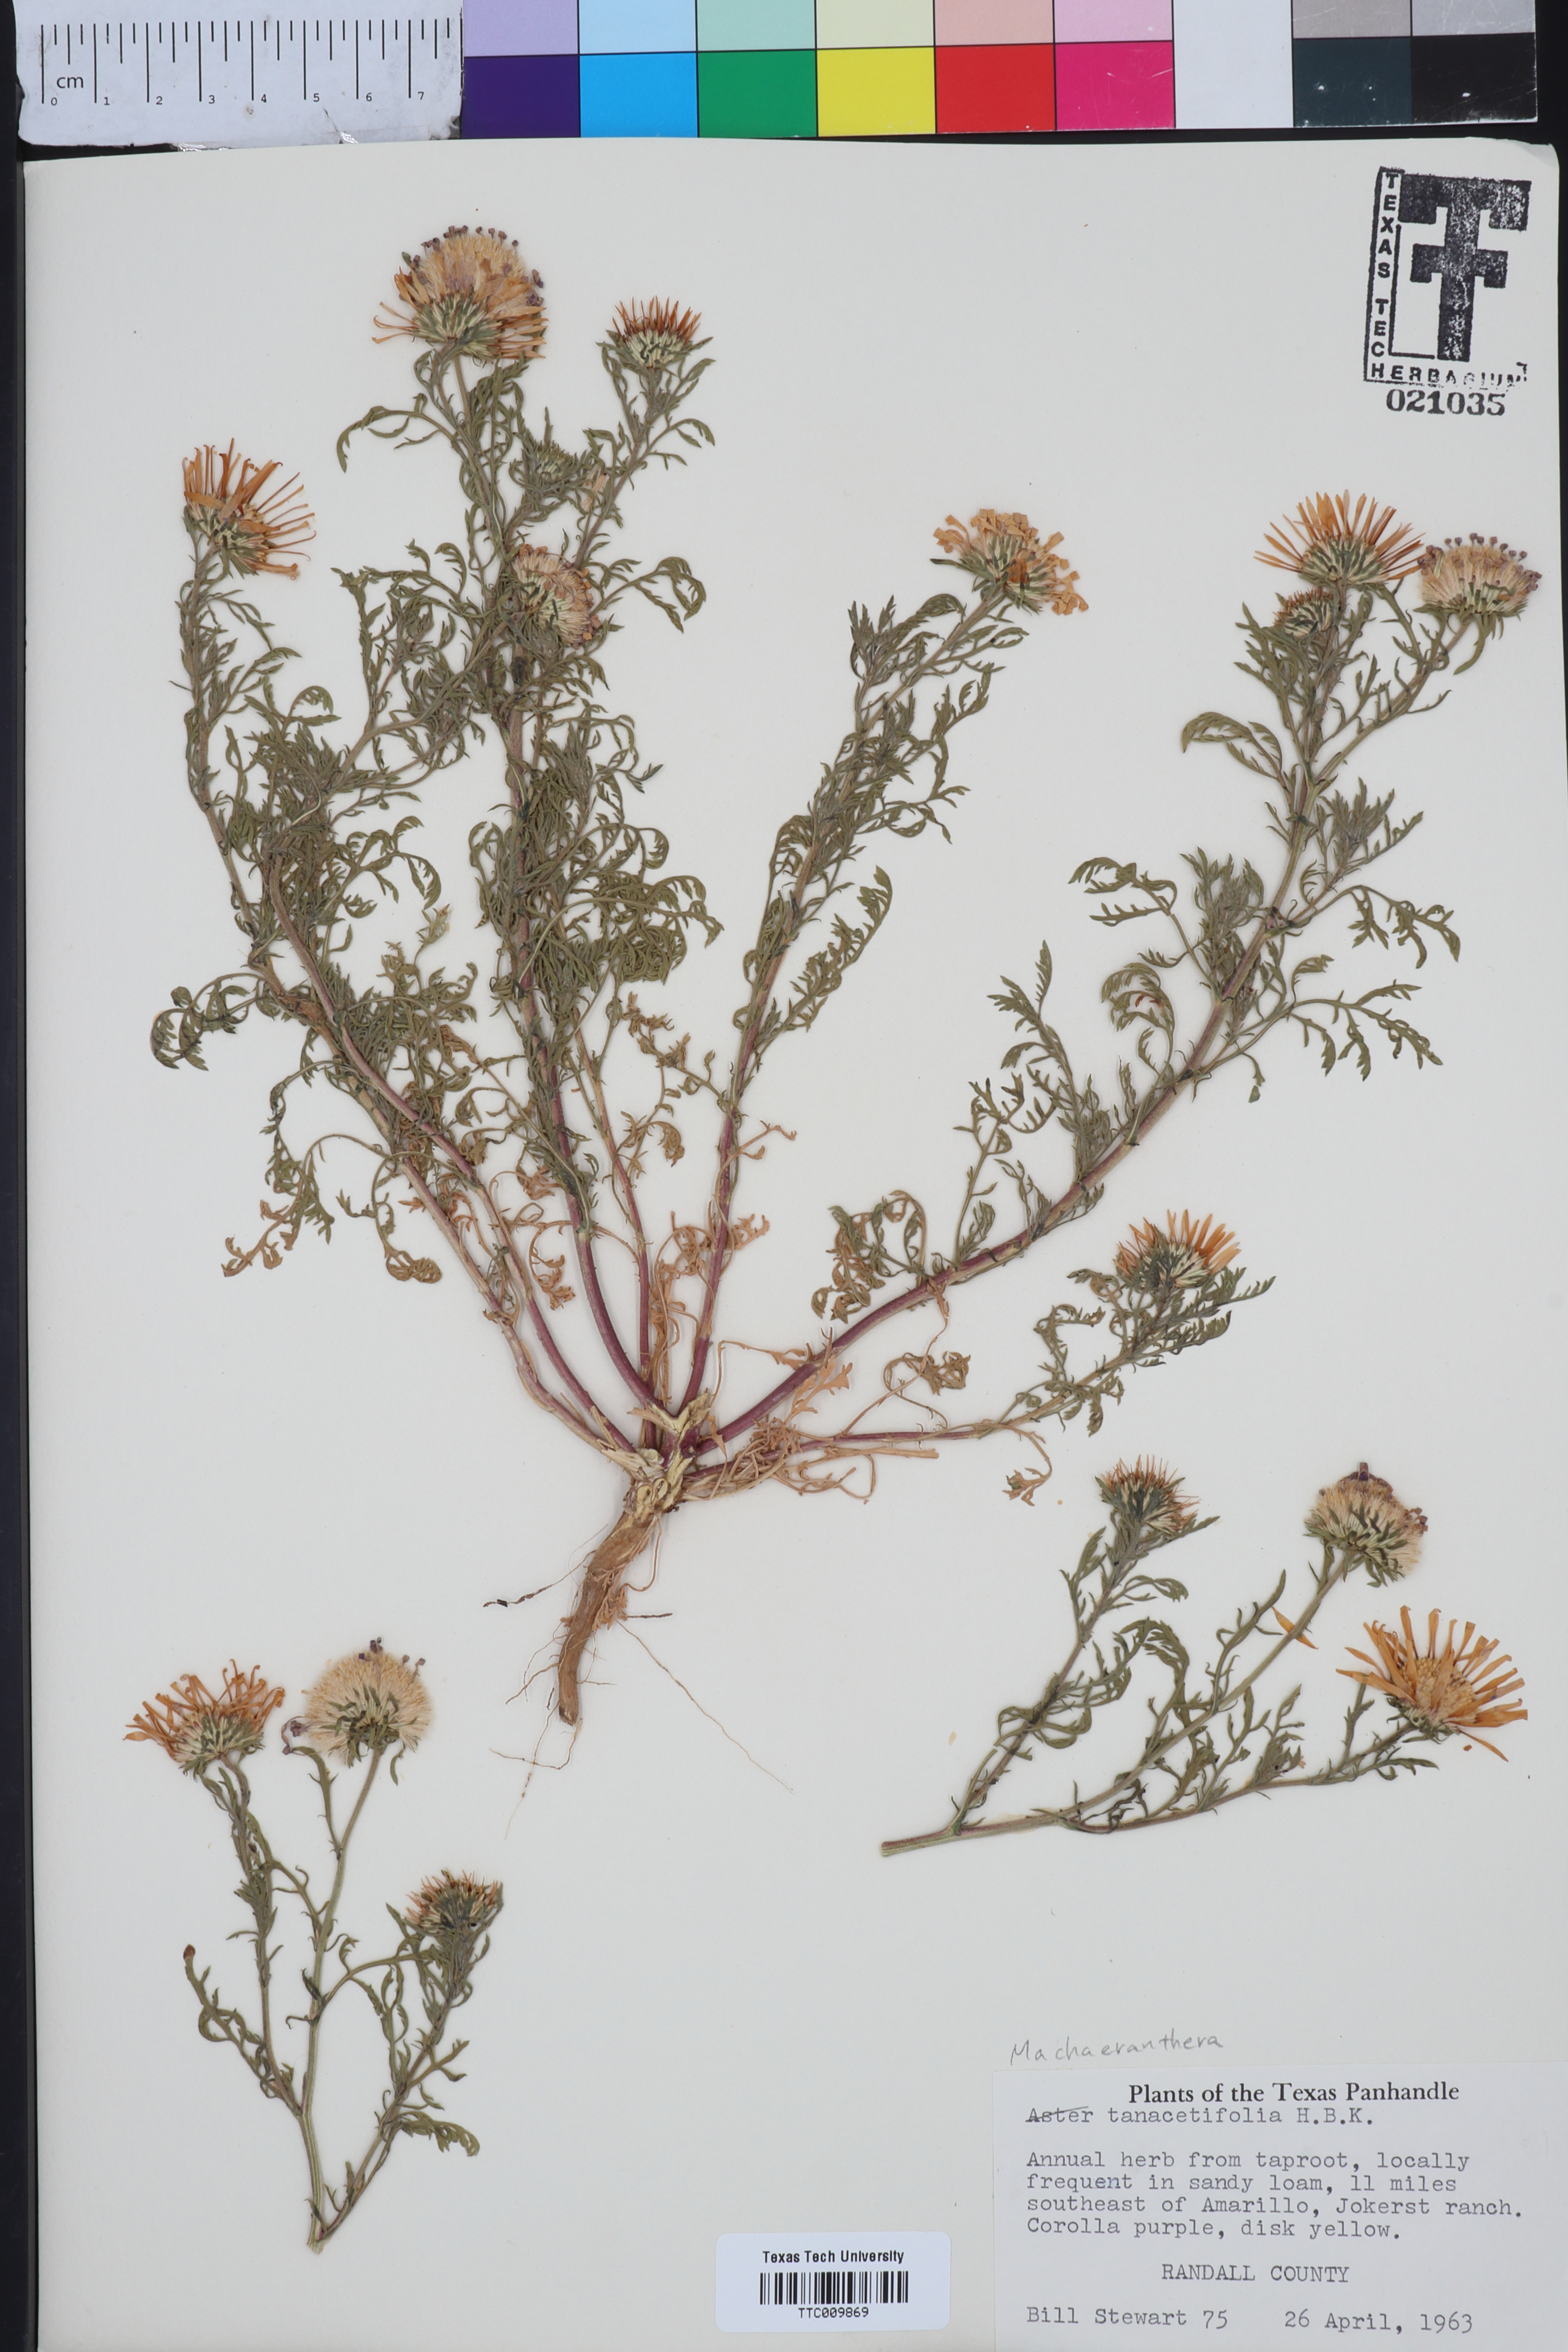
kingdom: Plantae
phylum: Tracheophyta
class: Magnoliopsida
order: Asterales
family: Asteraceae
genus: Machaeranthera
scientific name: Machaeranthera tanacetifolia
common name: Tansy-aster
